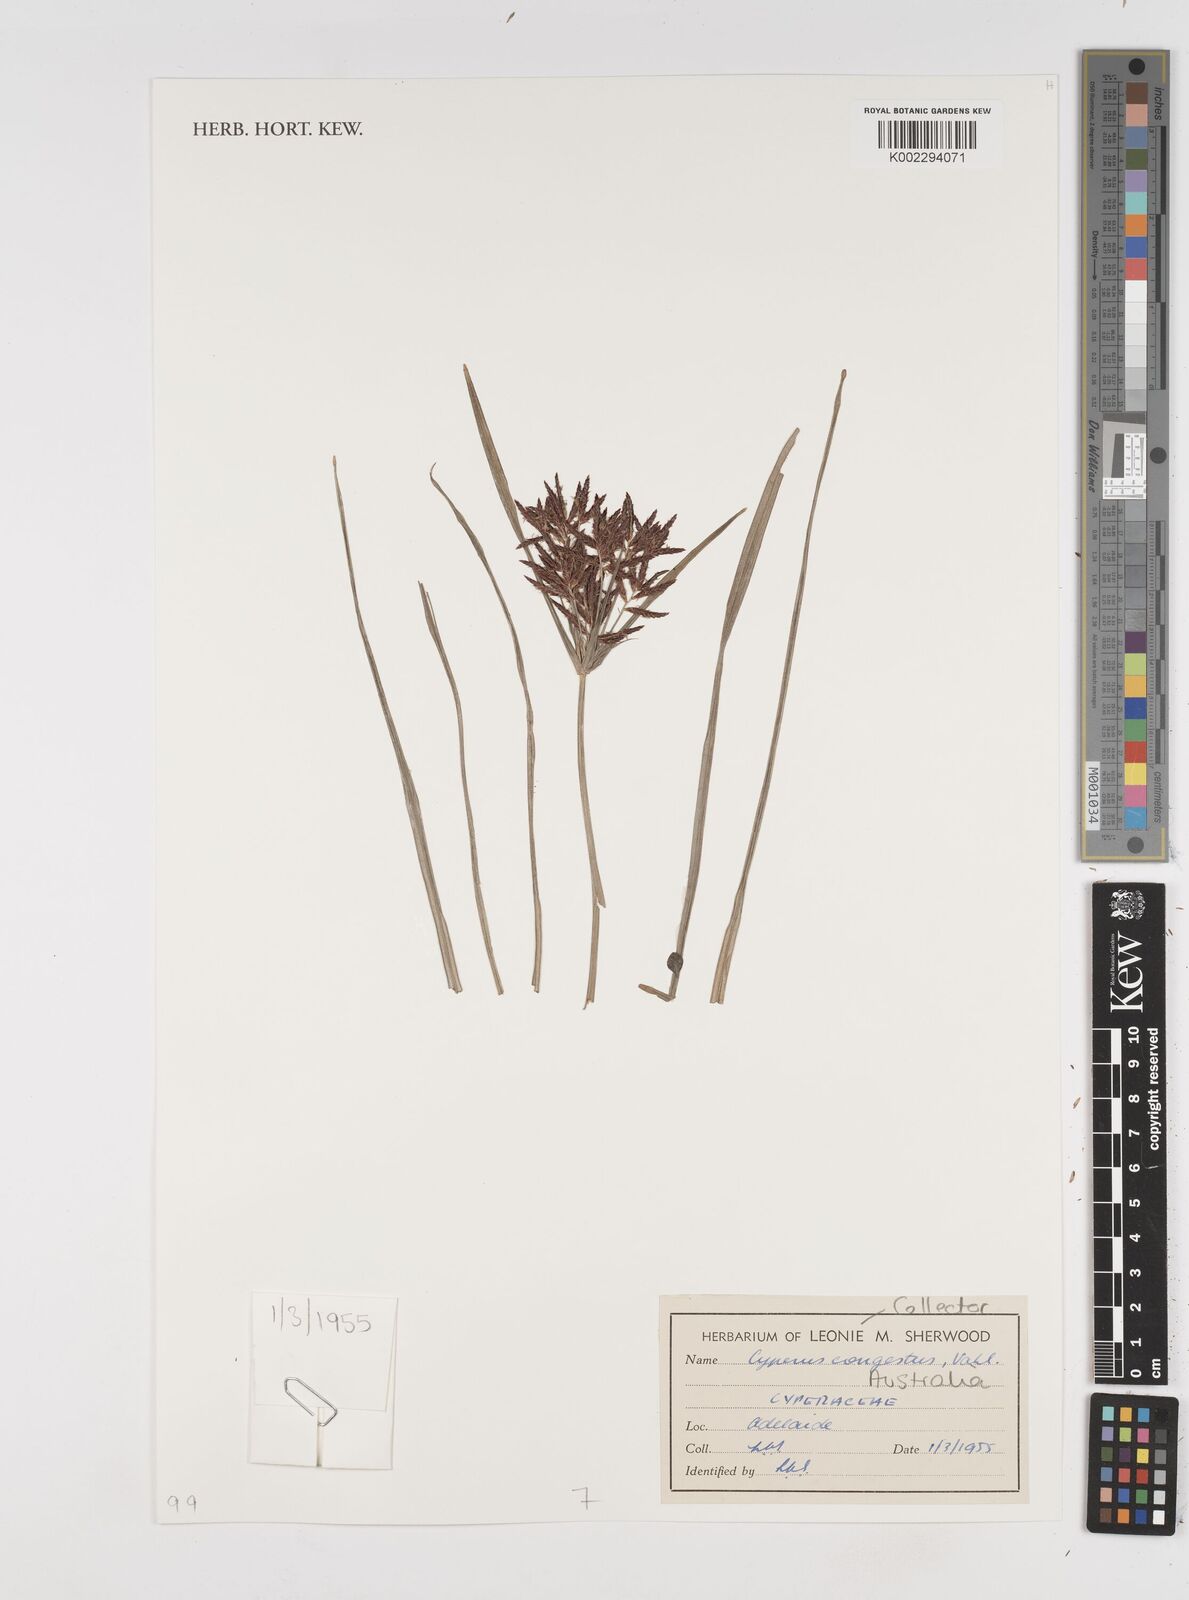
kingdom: Plantae
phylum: Tracheophyta
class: Liliopsida
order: Poales
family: Cyperaceae
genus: Cyperus
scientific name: Cyperus congestus
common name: Dense flat sedge
